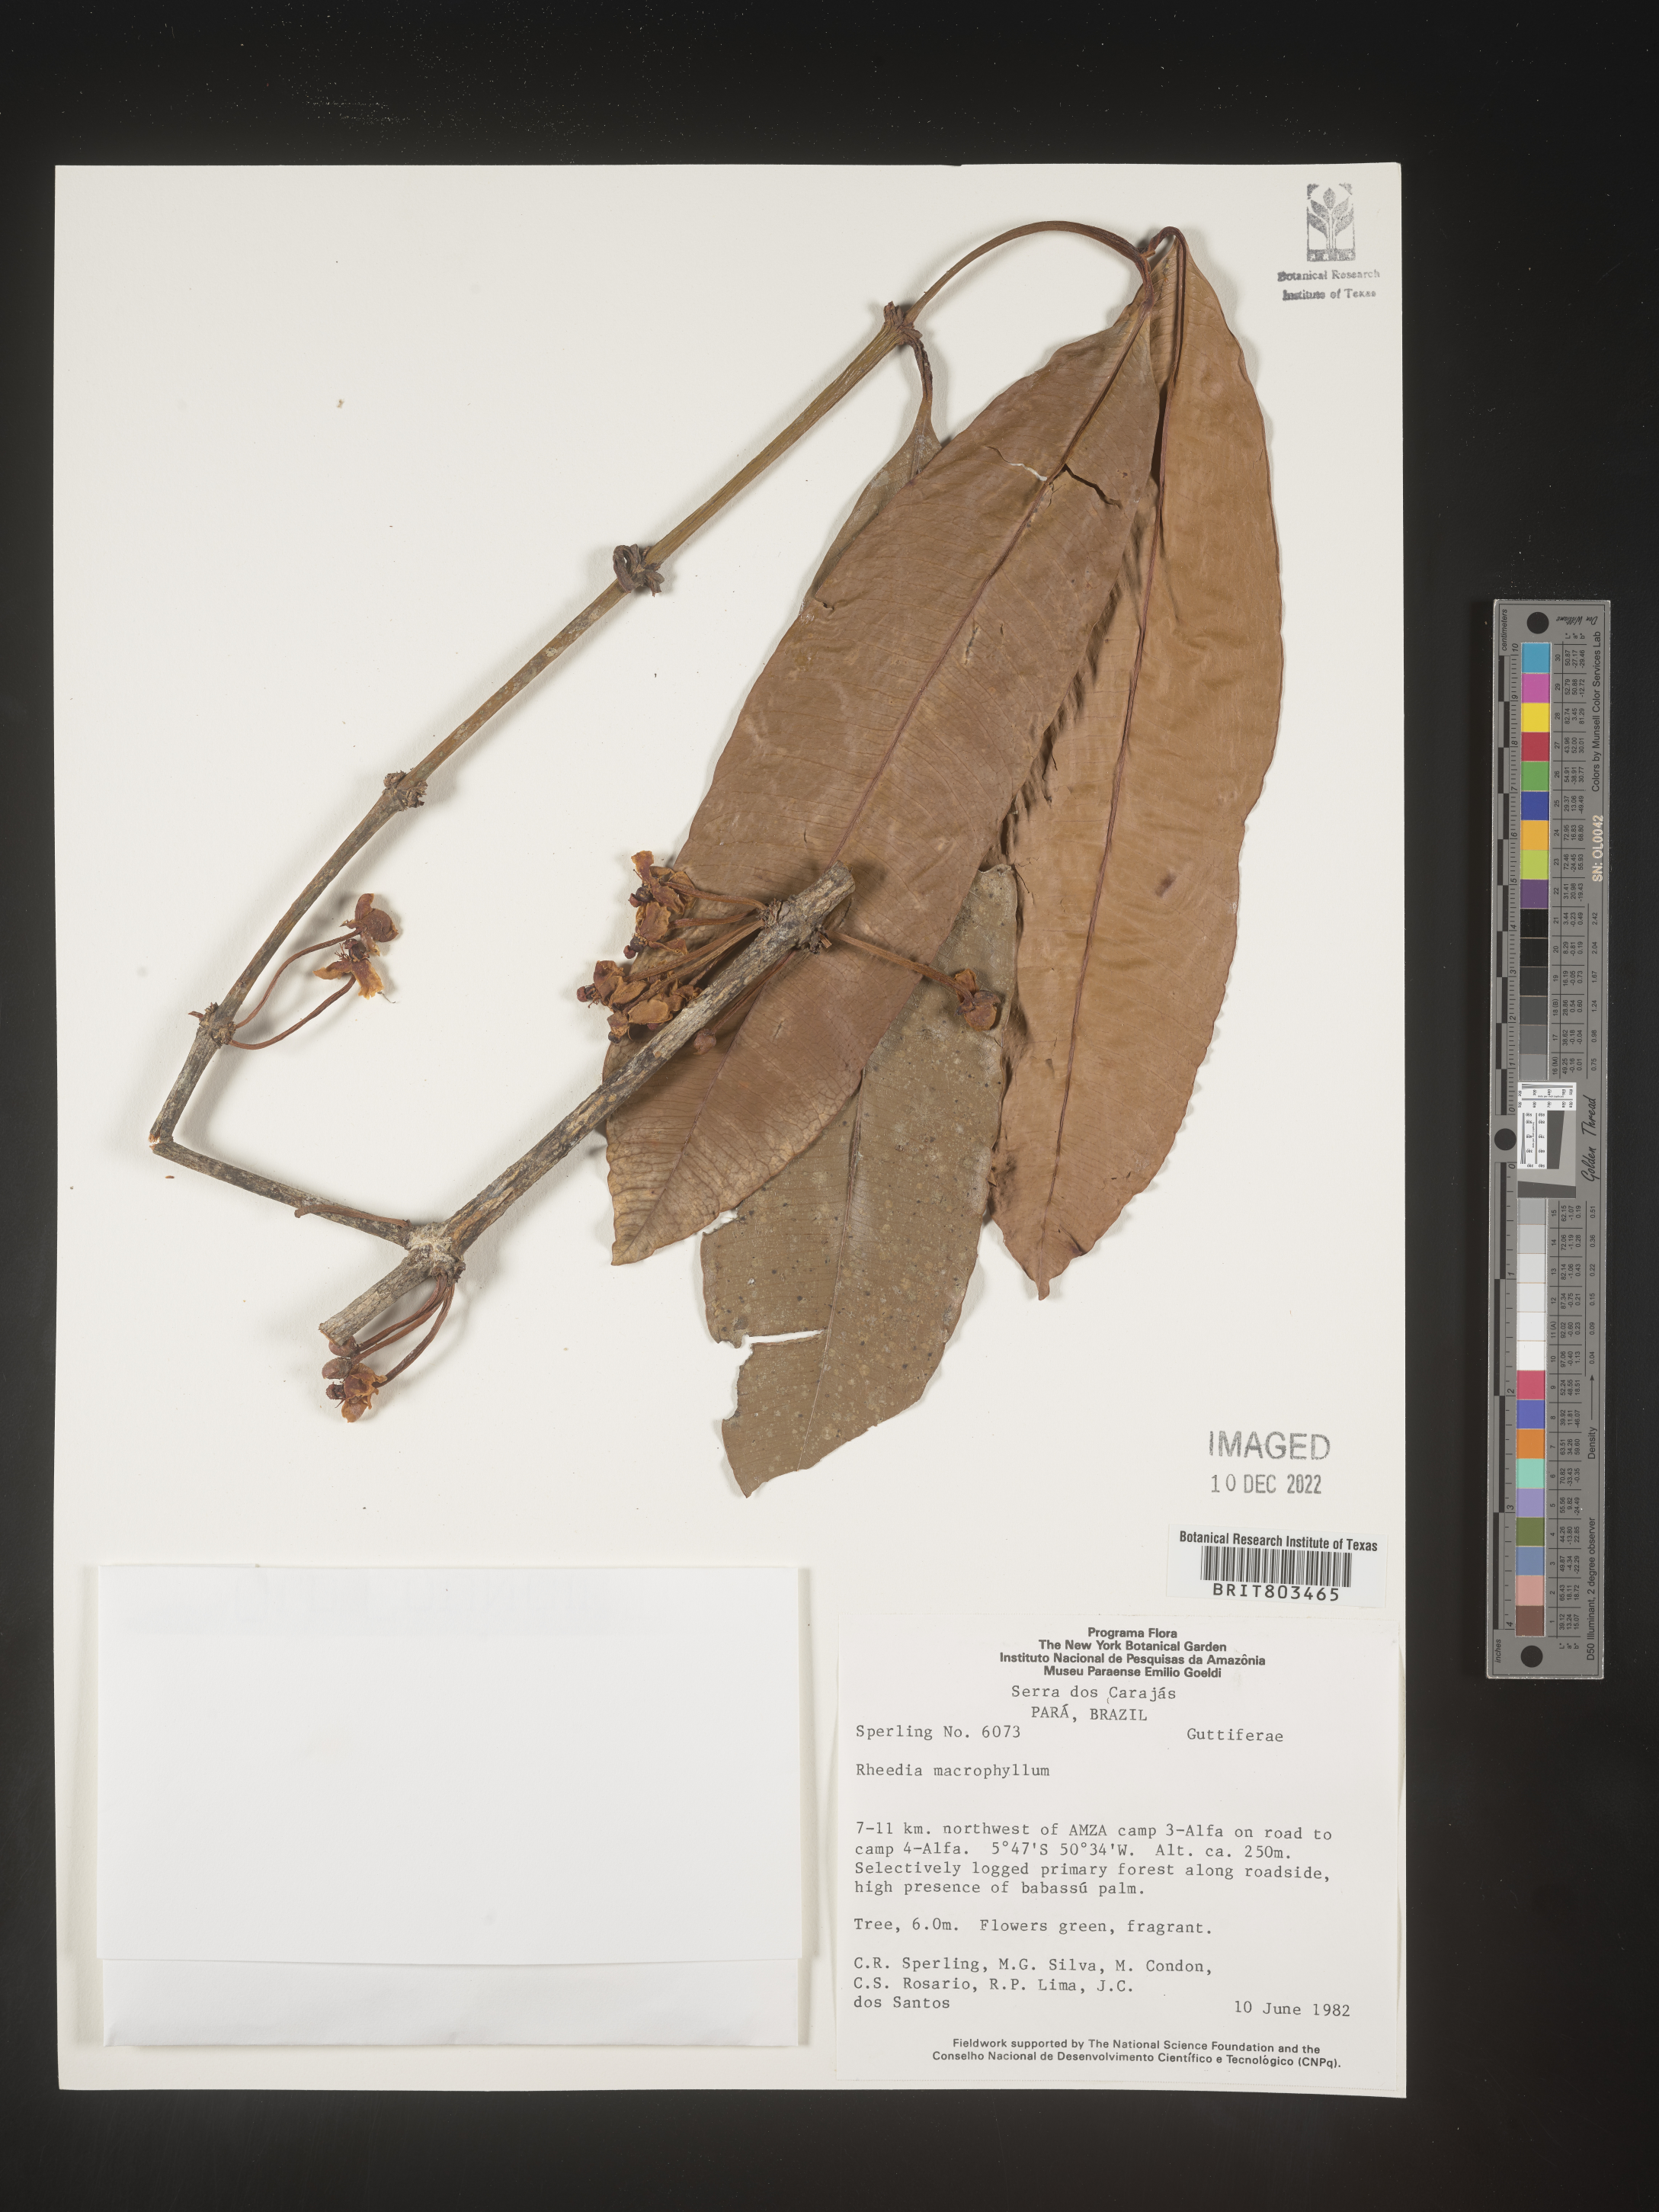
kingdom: Plantae
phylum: Tracheophyta
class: Magnoliopsida
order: Malpighiales
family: Clusiaceae
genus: Tovomita
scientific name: Tovomita
